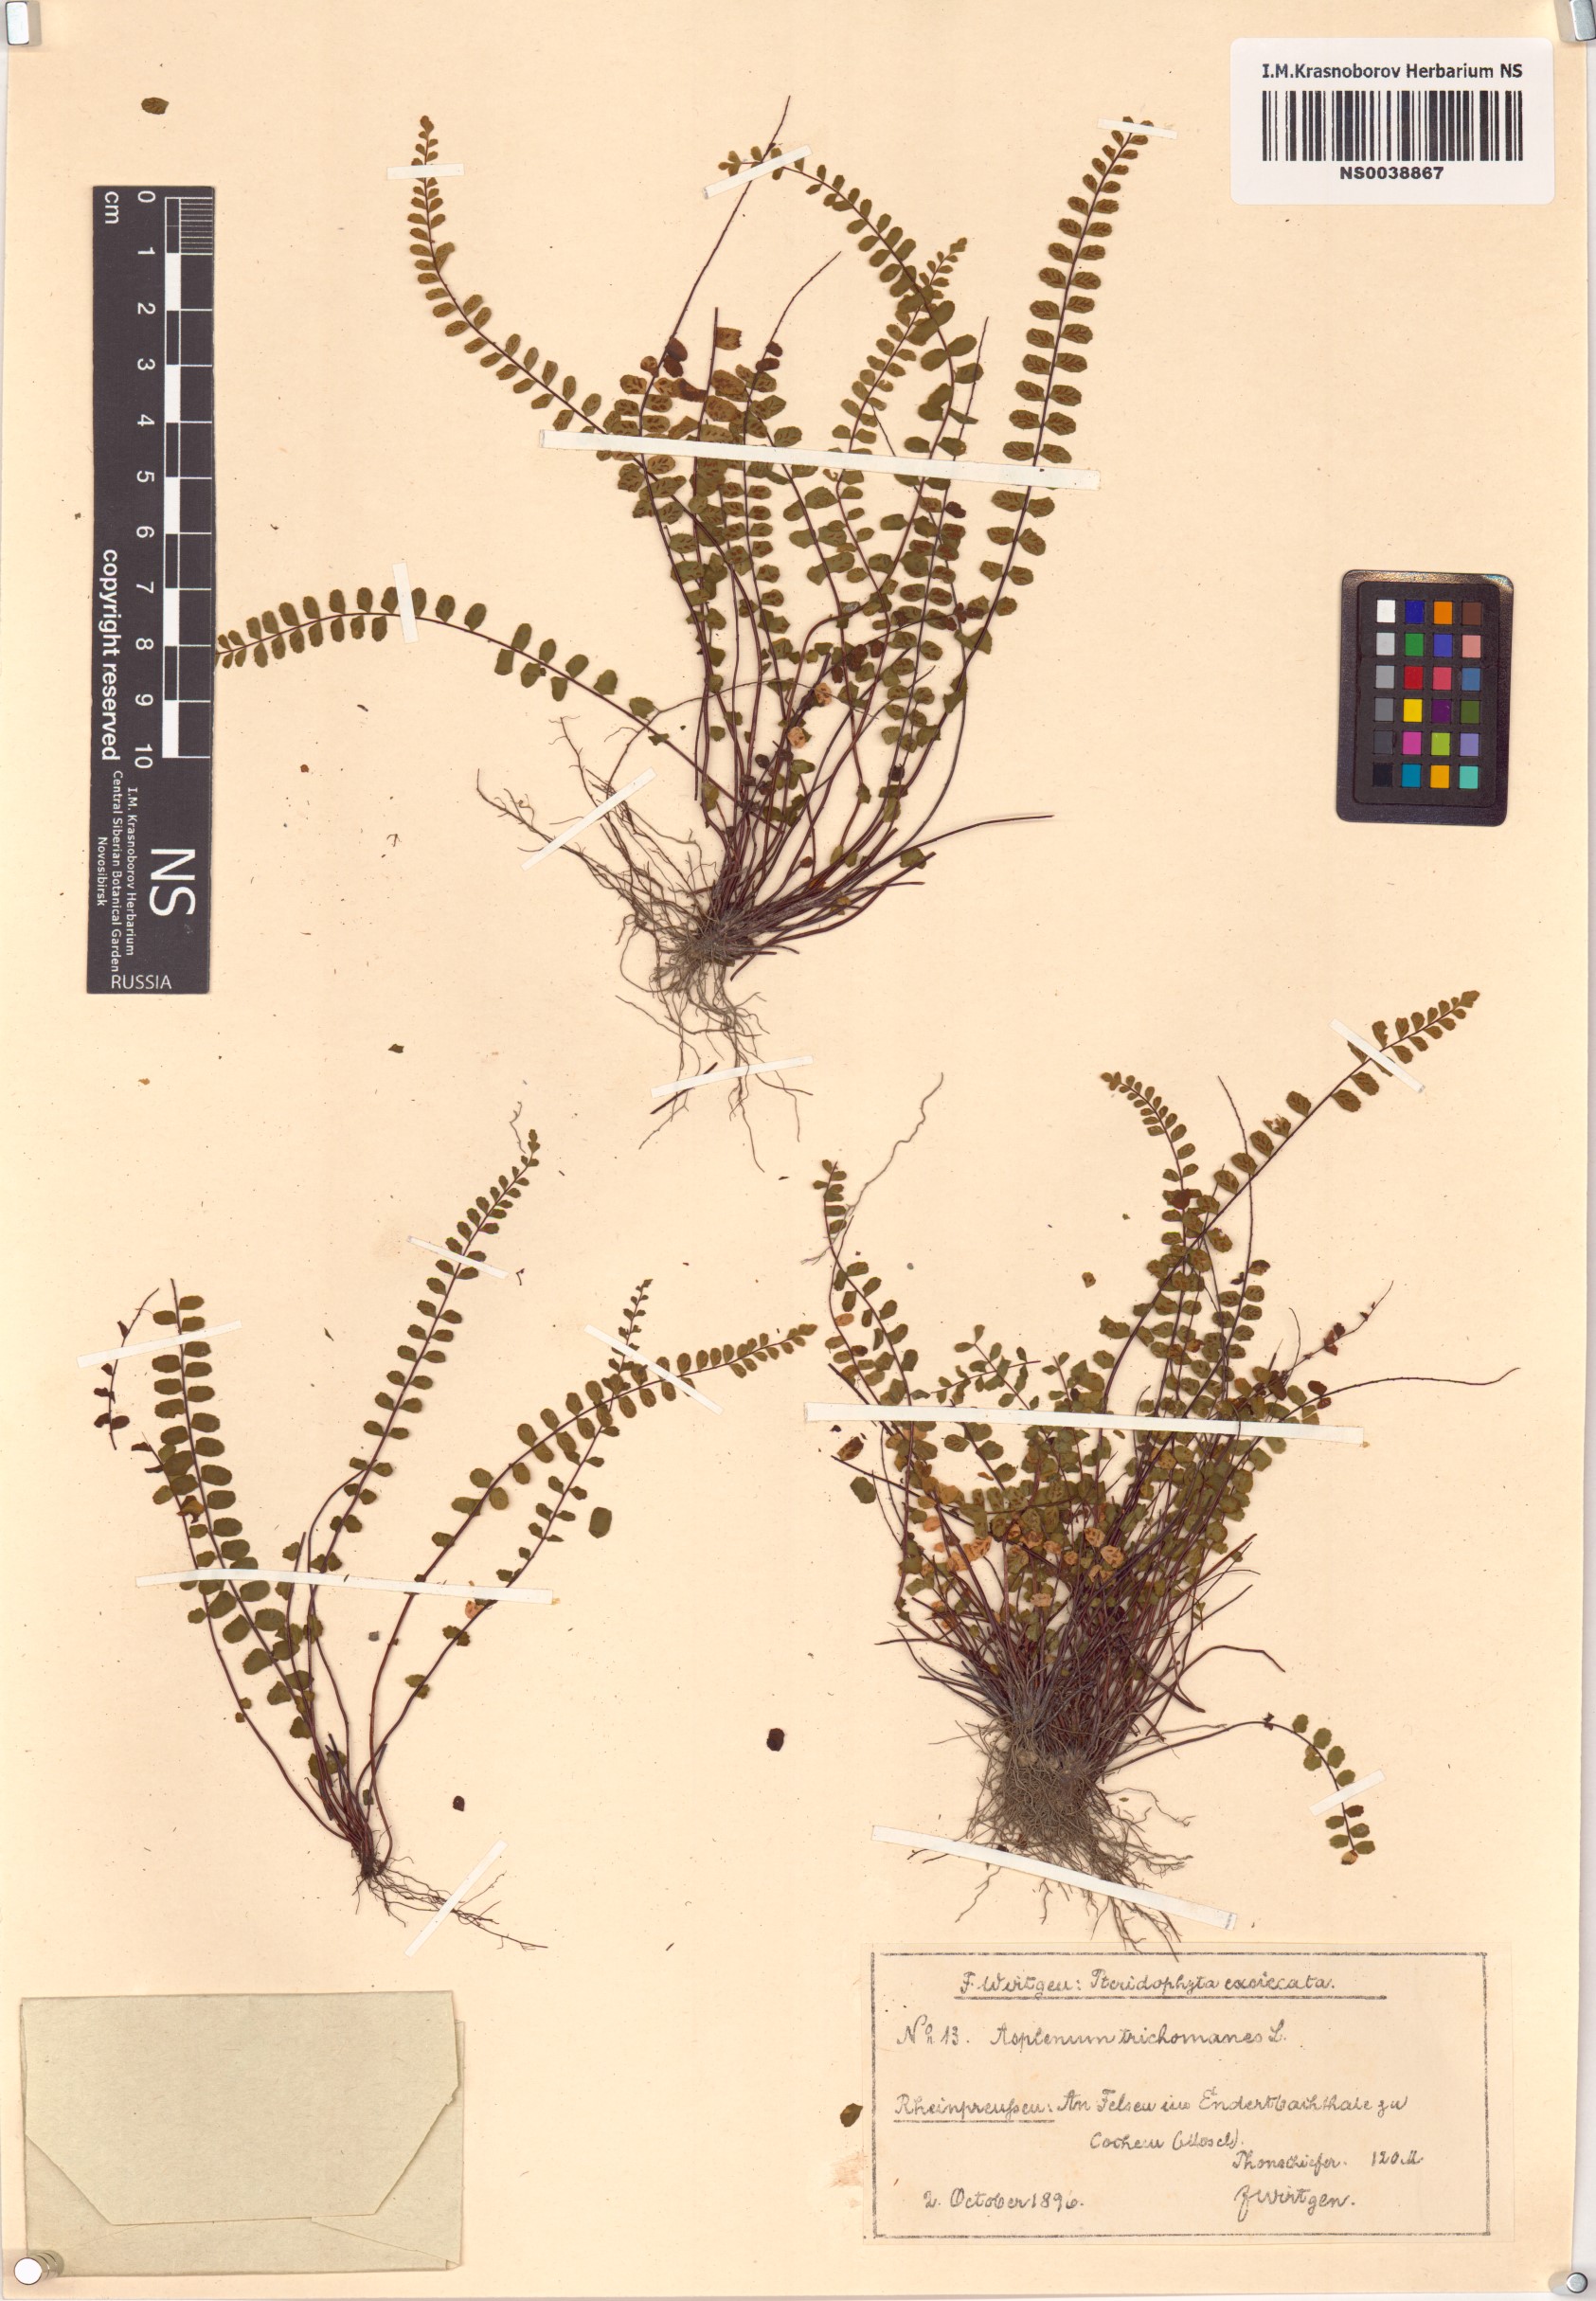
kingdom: Plantae
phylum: Tracheophyta
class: Polypodiopsida
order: Polypodiales
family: Aspleniaceae
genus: Asplenium
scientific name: Asplenium trichomanes
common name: Maidenhair spleenwort
